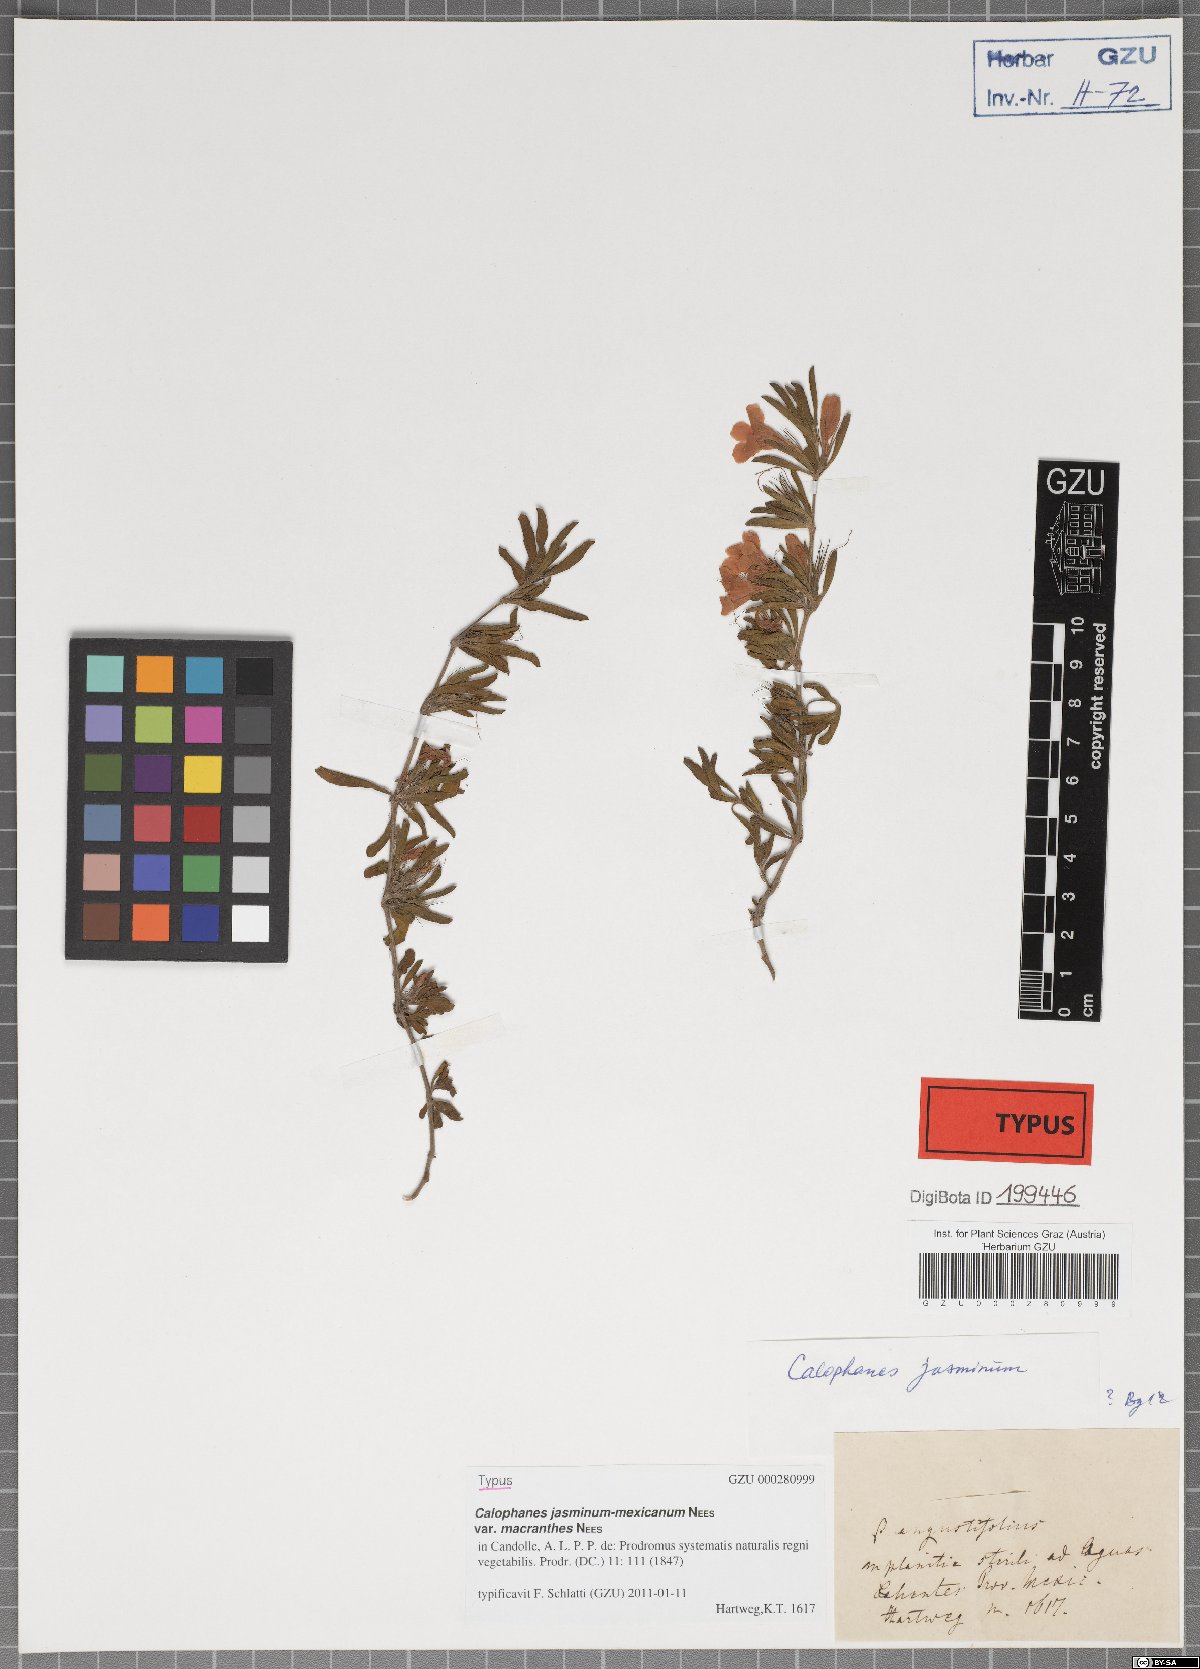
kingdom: Plantae
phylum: Tracheophyta
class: Magnoliopsida
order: Lamiales
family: Acanthaceae
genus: Dyschoriste
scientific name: Dyschoriste microphylla
